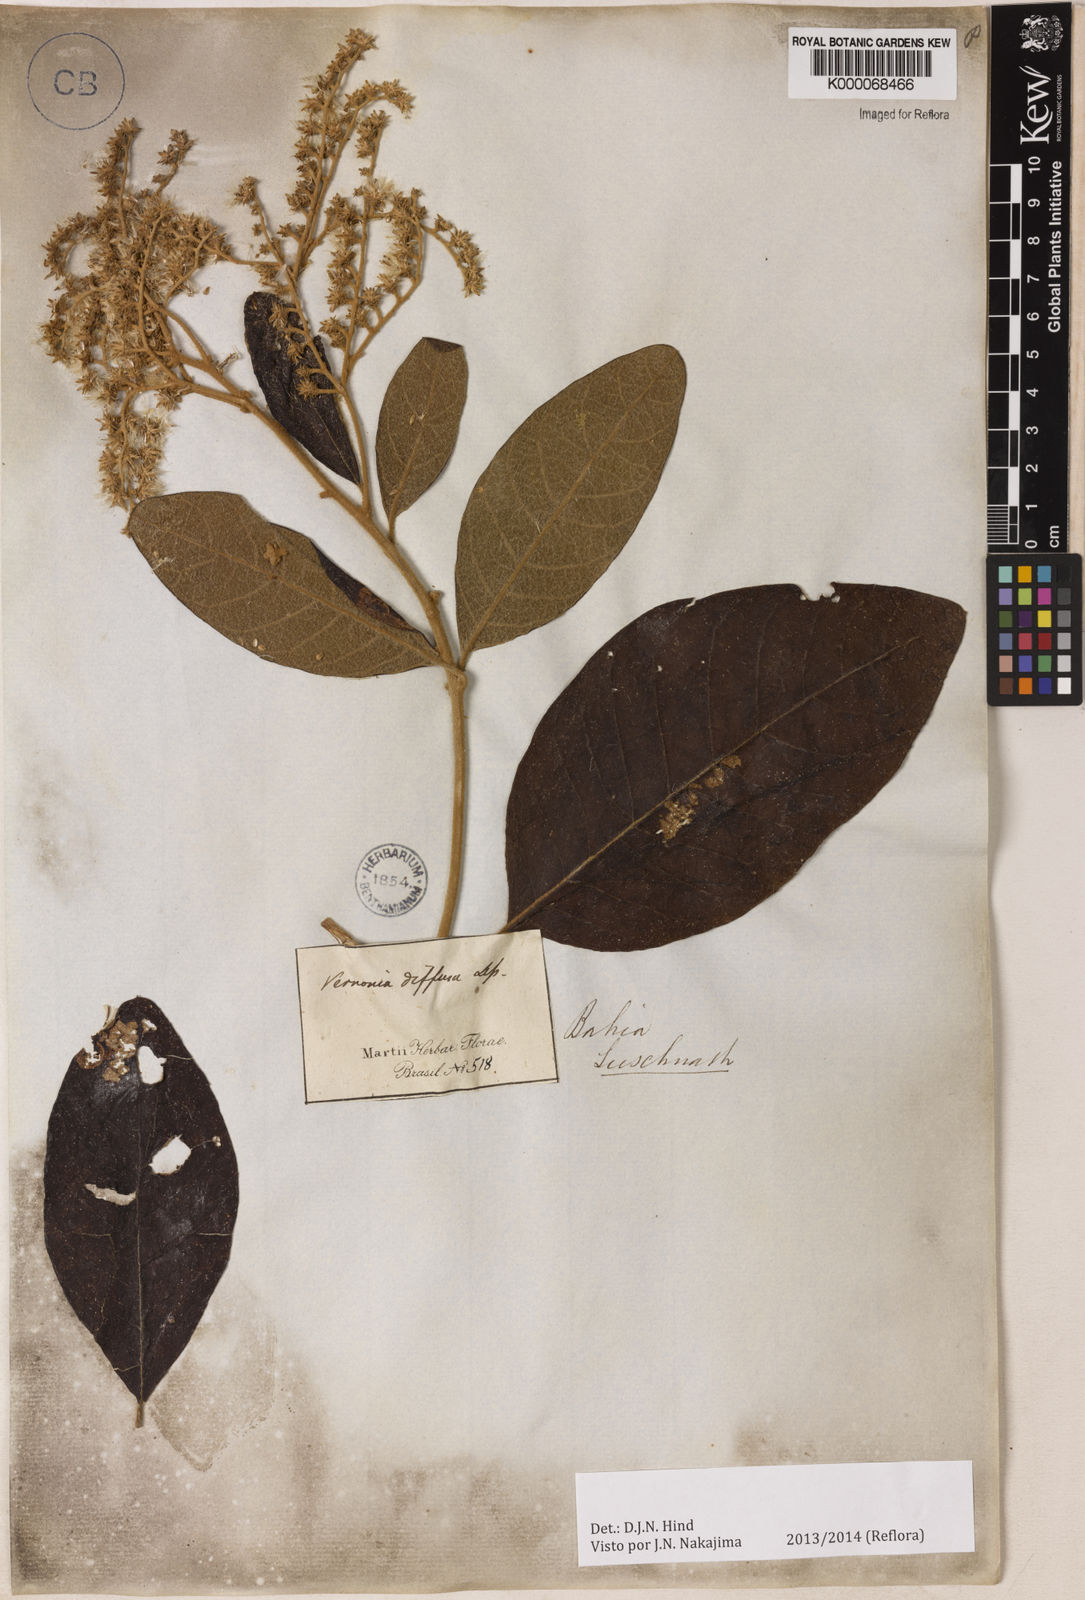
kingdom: Plantae
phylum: Tracheophyta
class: Magnoliopsida
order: Asterales
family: Asteraceae
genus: Vernonanthura
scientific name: Vernonanthura divaricata
